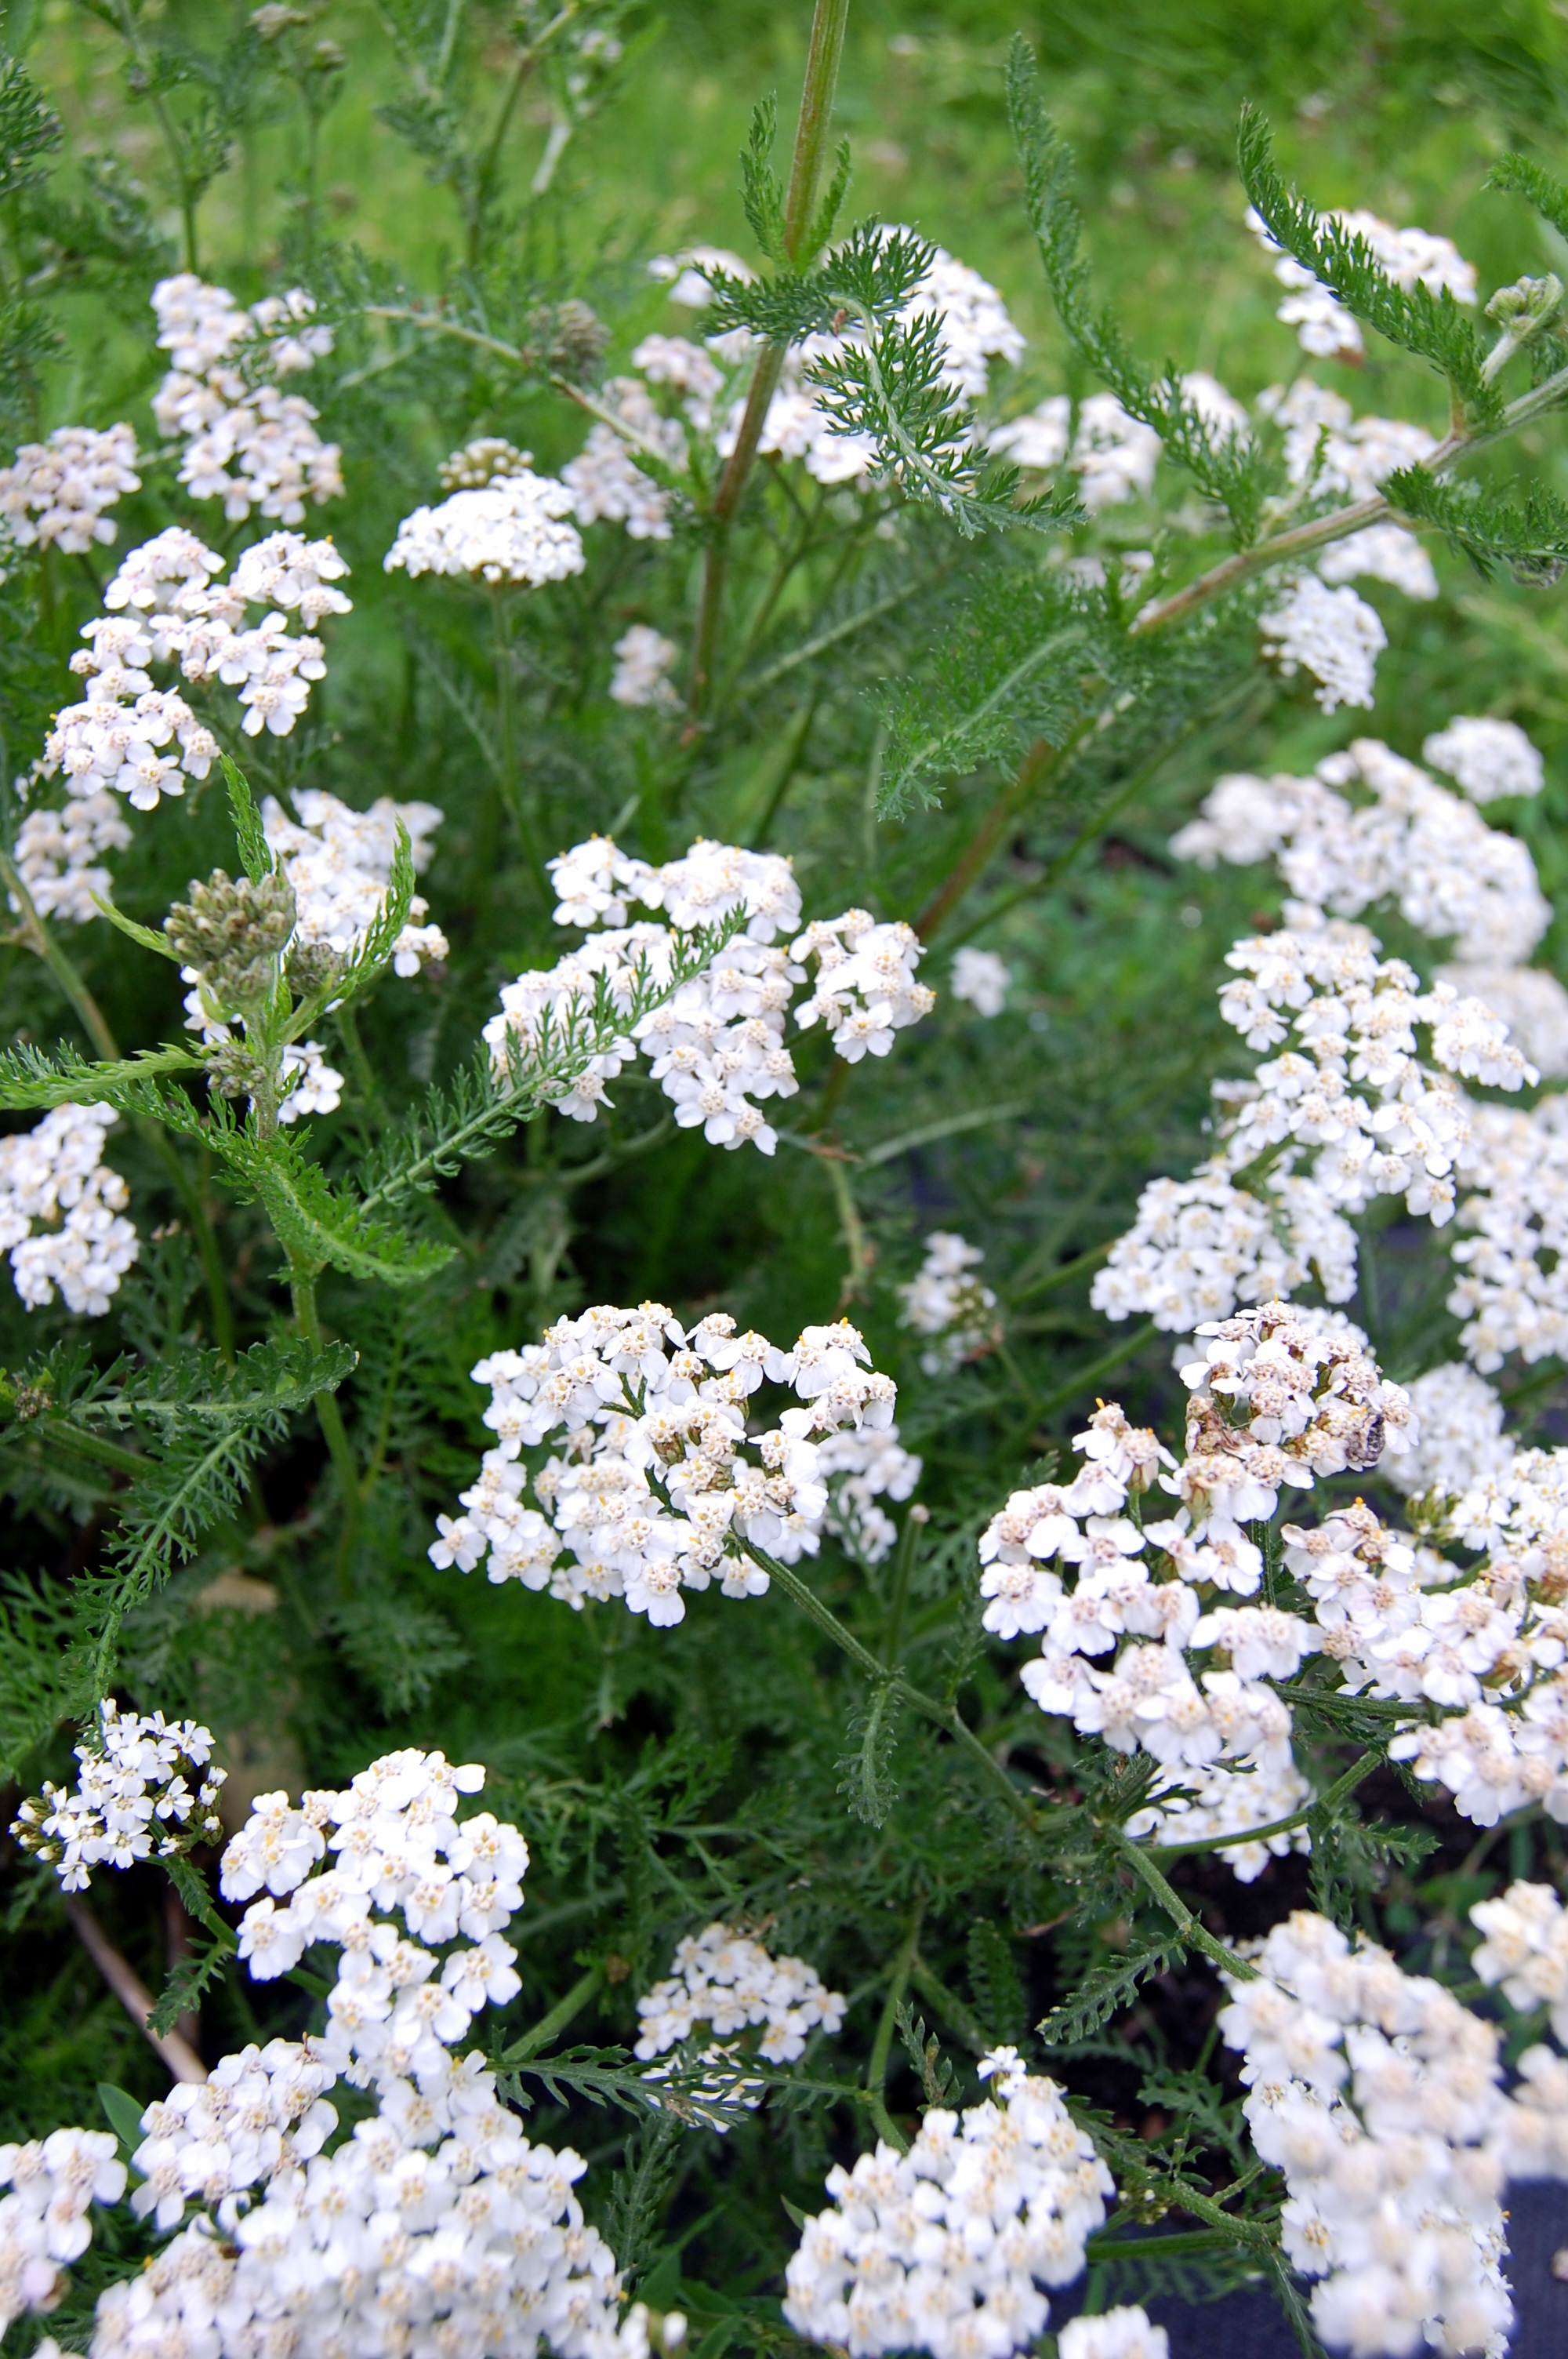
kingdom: Plantae
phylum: Tracheophyta
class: Magnoliopsida
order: Asterales
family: Asteraceae
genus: Achillea
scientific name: Achillea millefolium
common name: Yarrow
